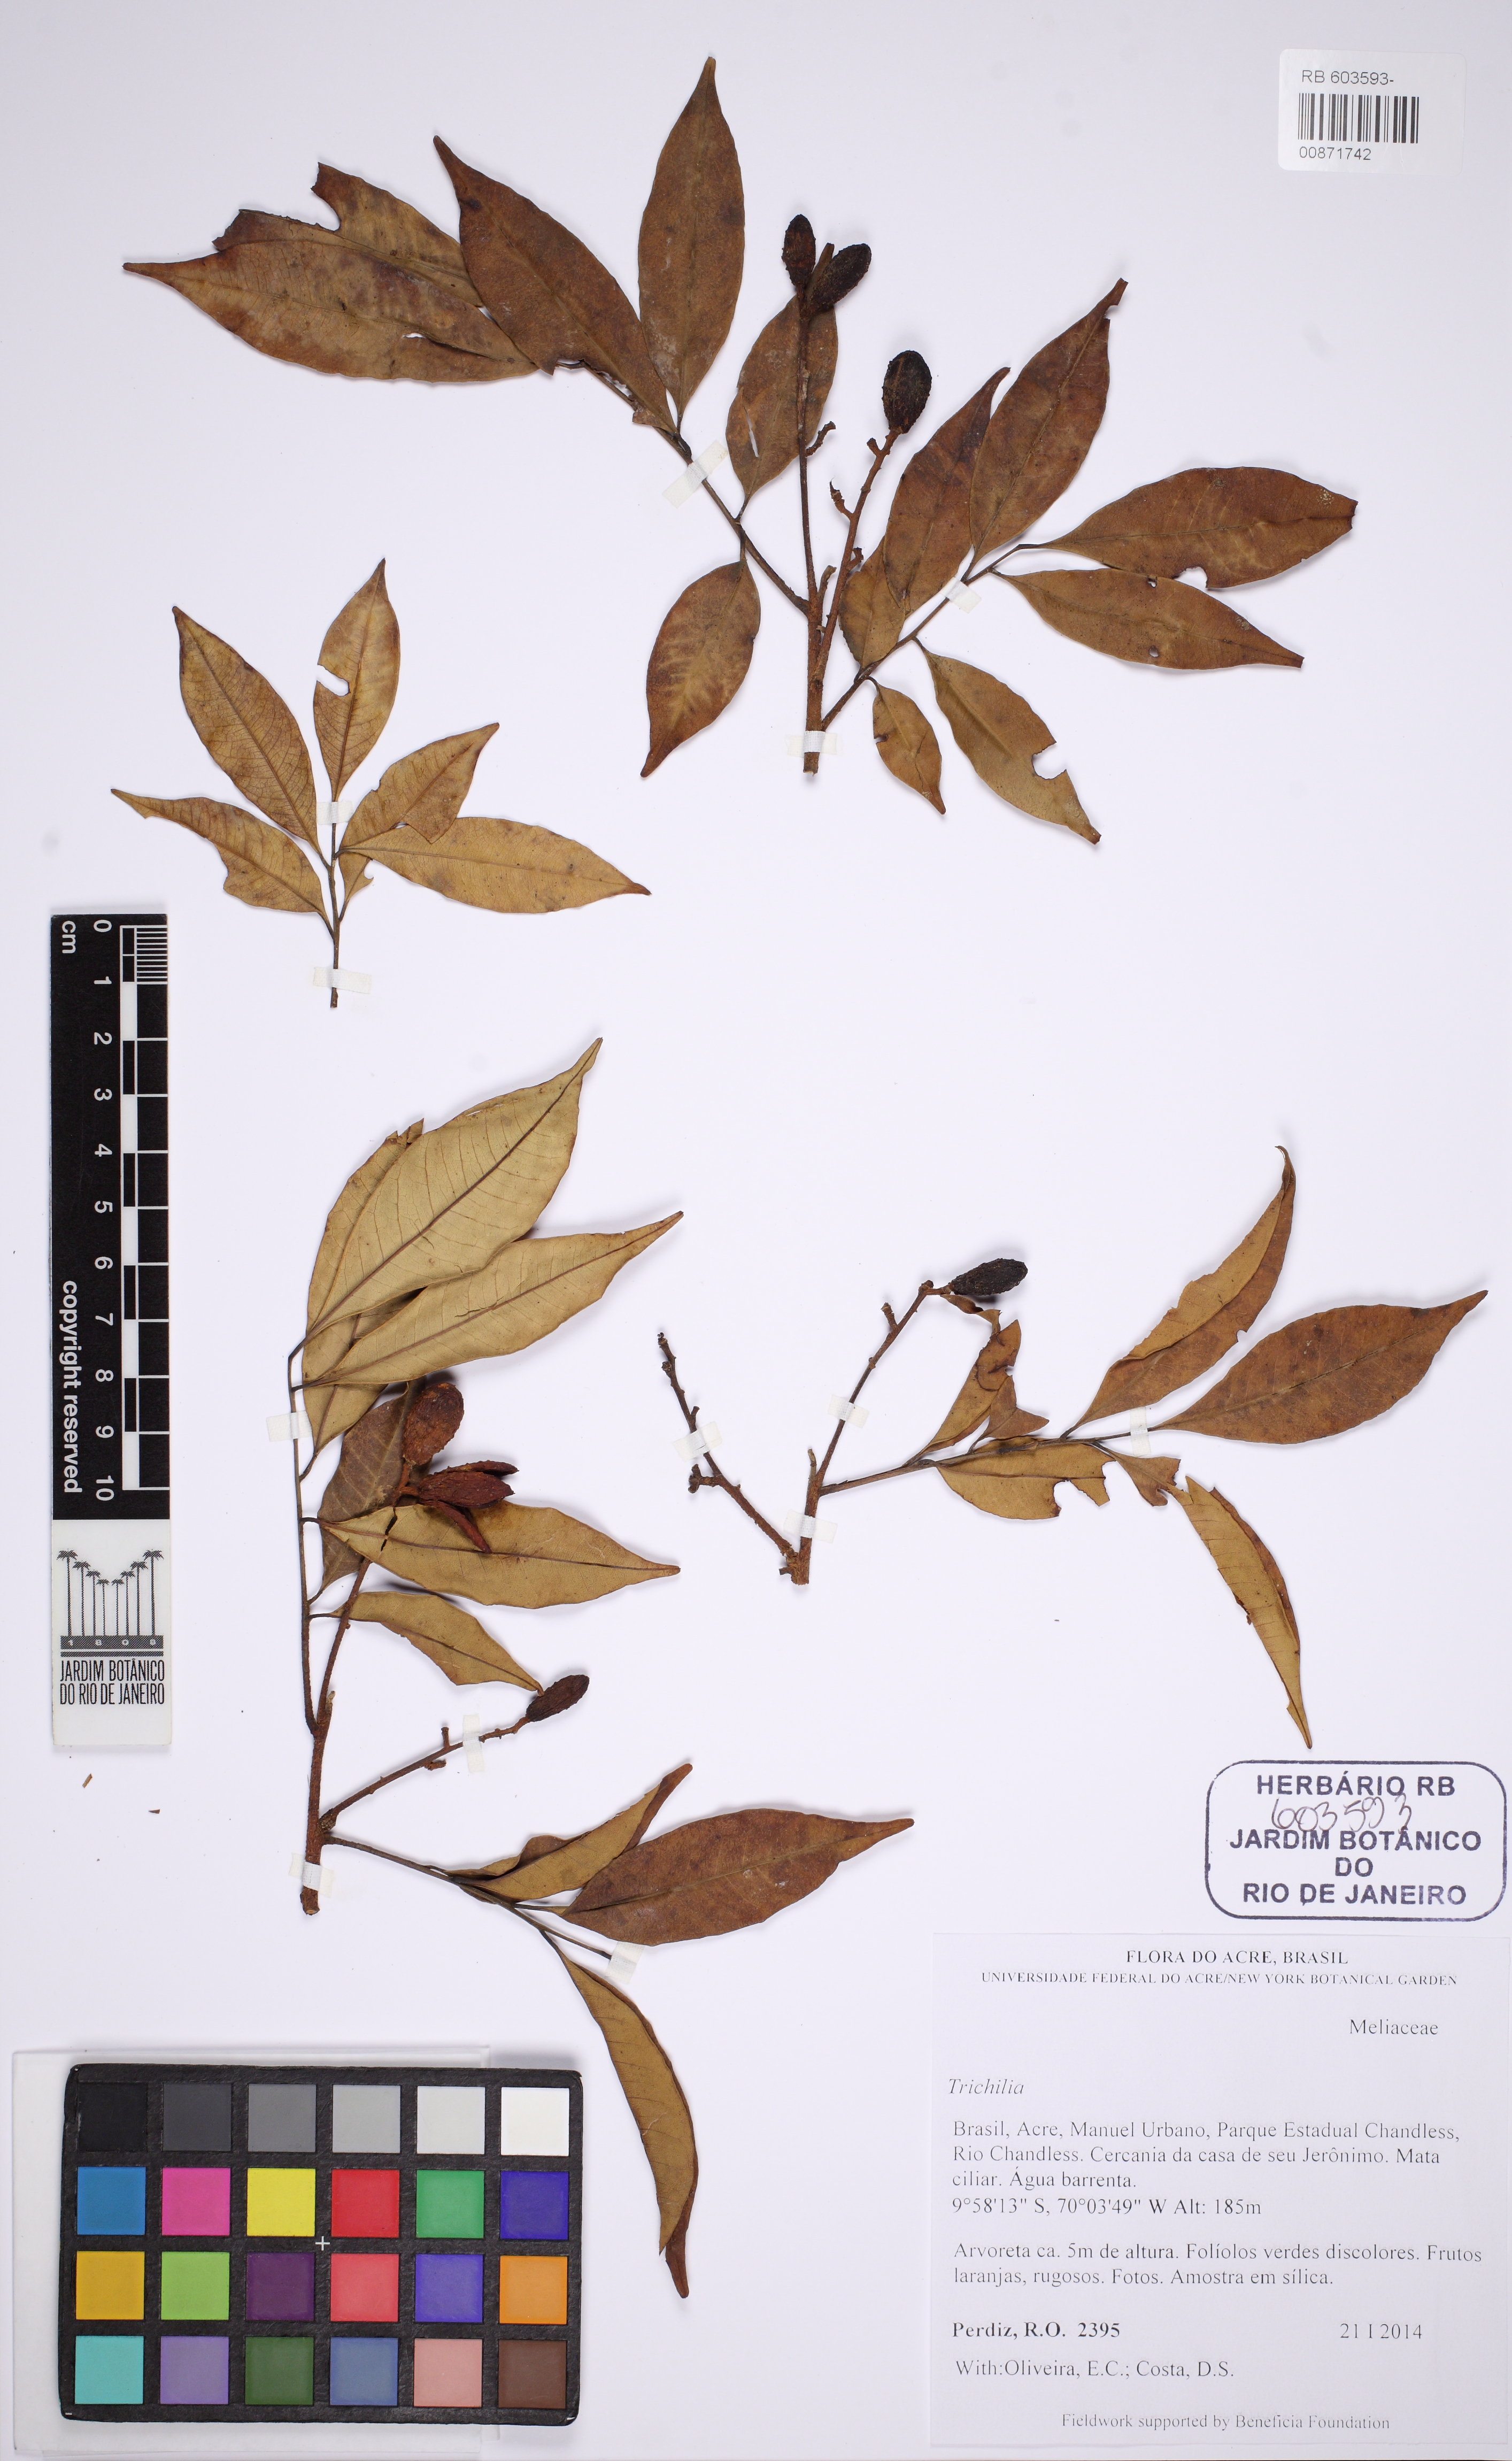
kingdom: Plantae
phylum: Tracheophyta
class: Magnoliopsida
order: Sapindales
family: Meliaceae
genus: Trichilia
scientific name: Trichilia
